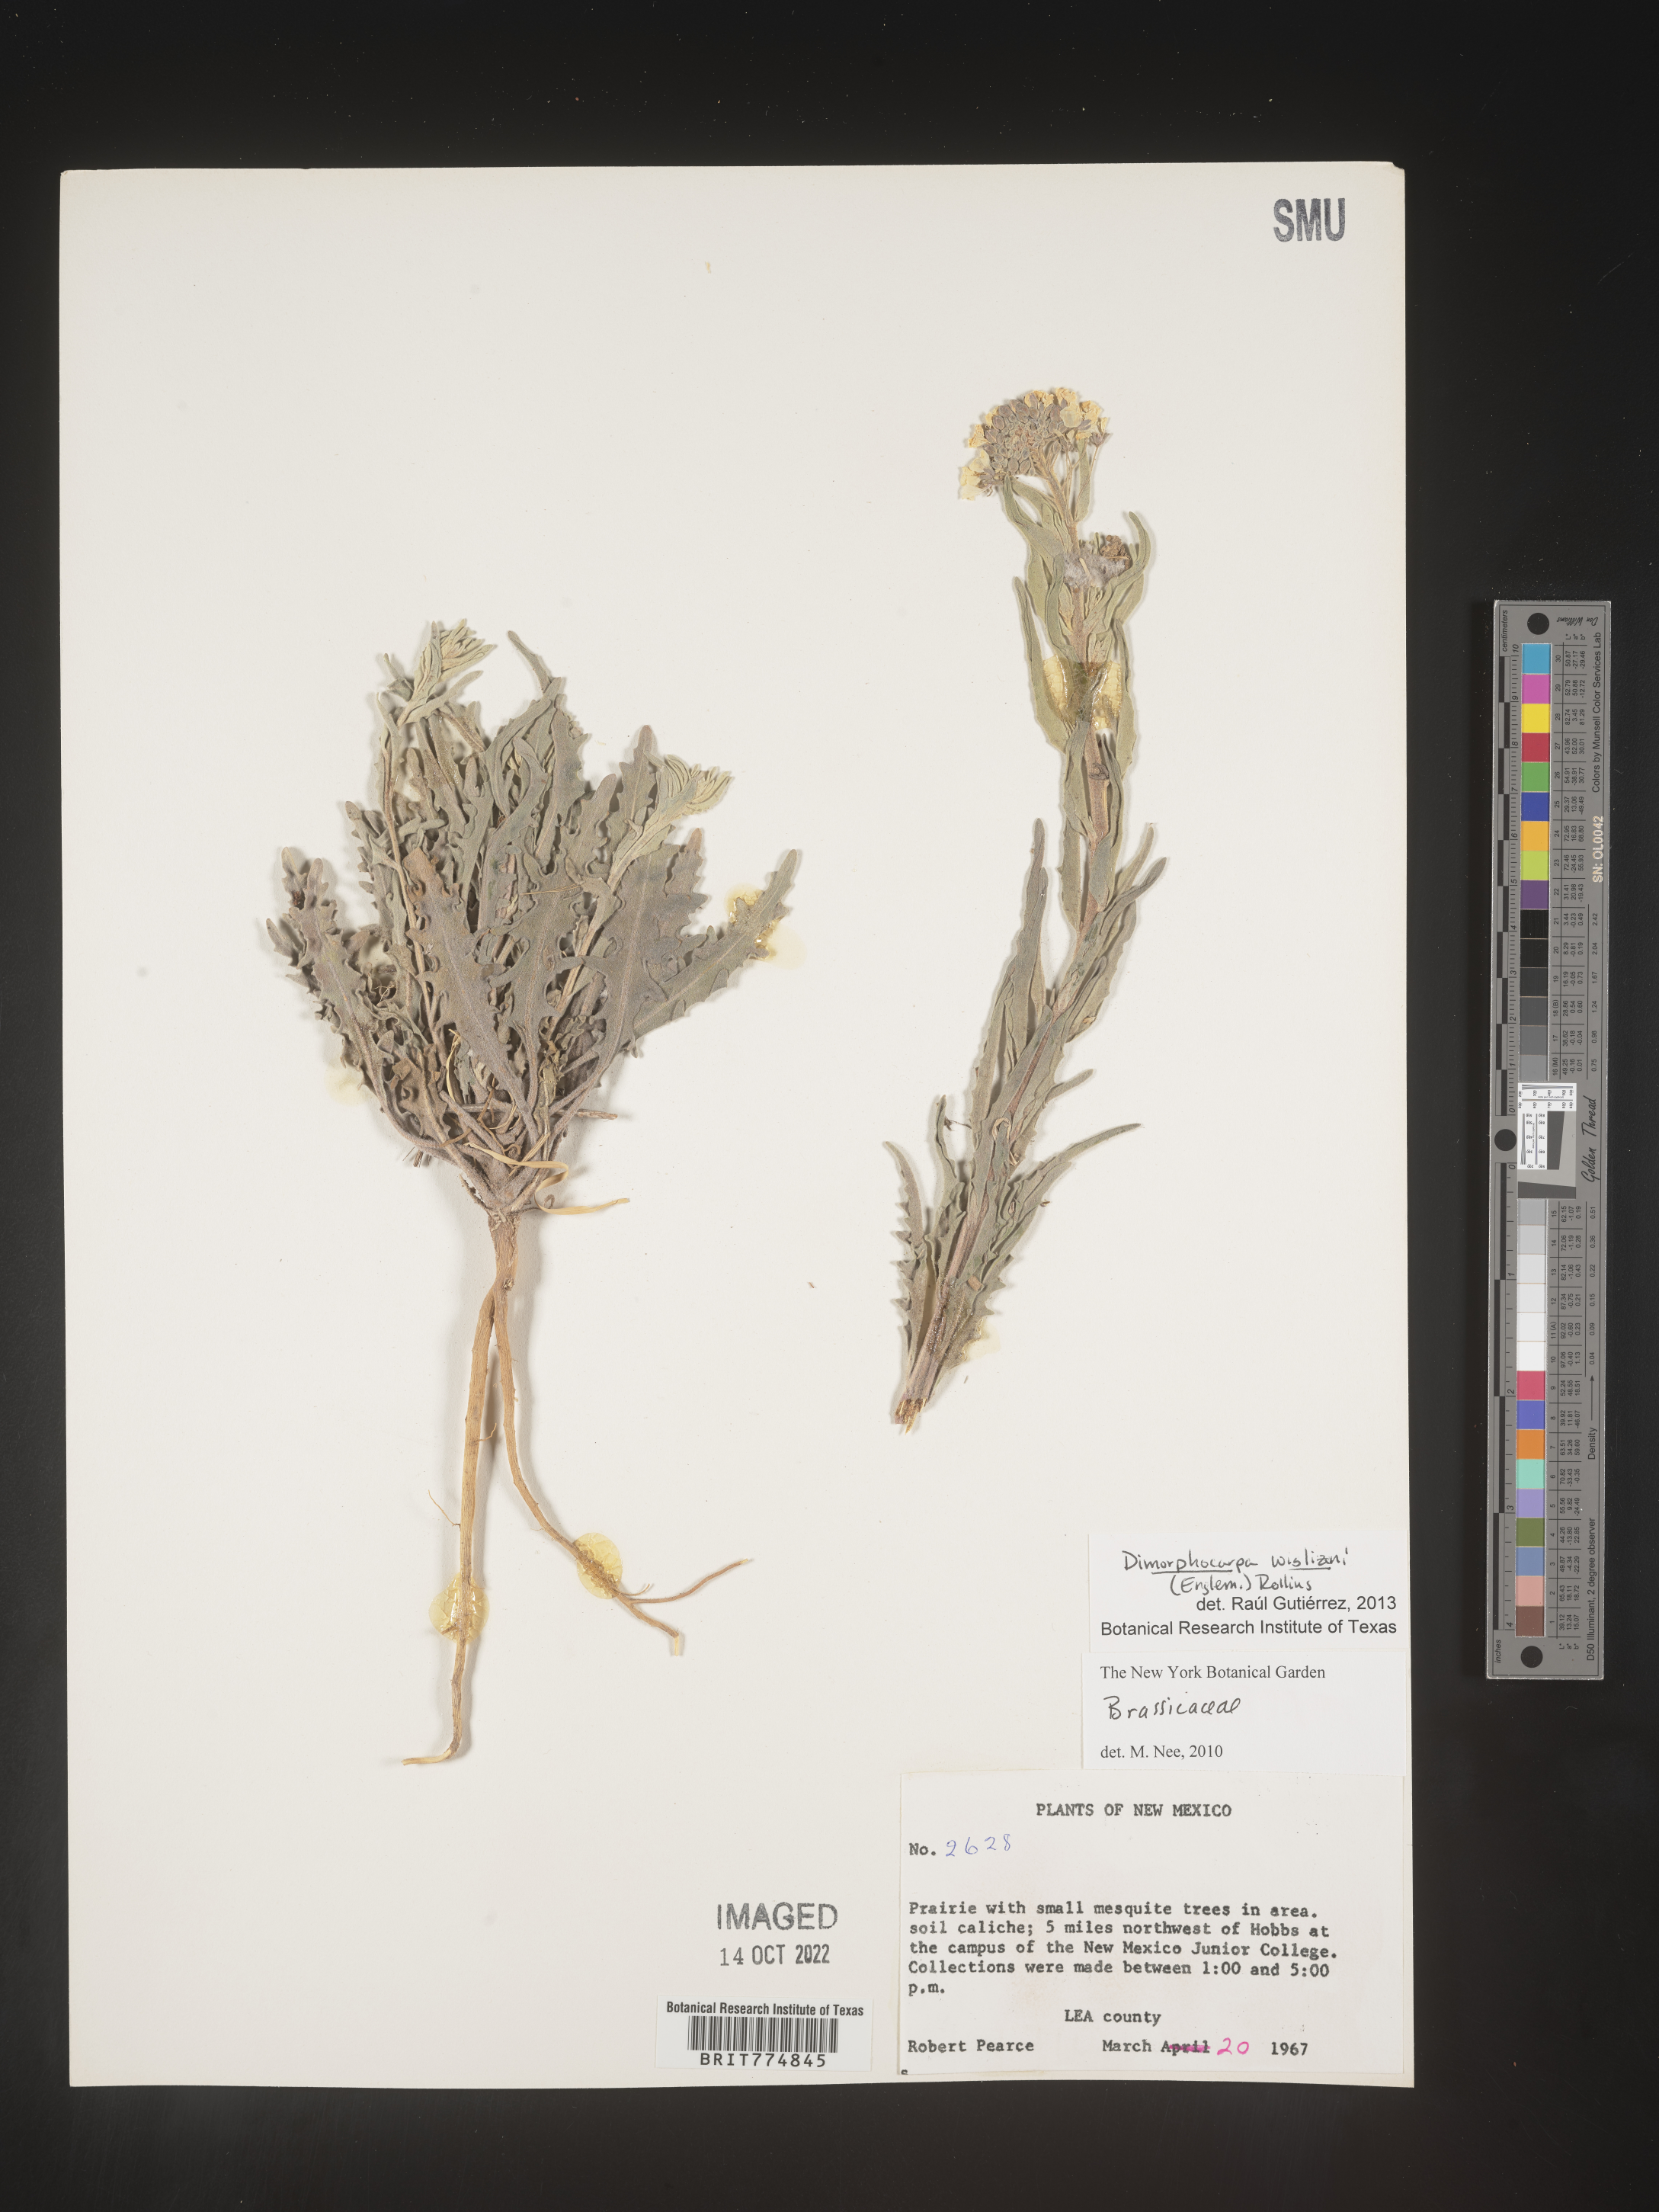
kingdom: Plantae
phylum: Tracheophyta
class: Magnoliopsida
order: Brassicales
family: Brassicaceae
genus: Dimorphocarpa
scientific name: Dimorphocarpa
